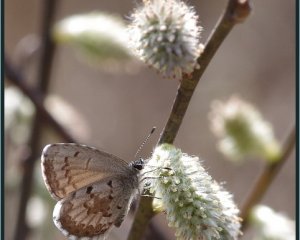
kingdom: Animalia
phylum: Arthropoda
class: Insecta
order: Lepidoptera
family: Lycaenidae
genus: Celastrina
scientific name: Celastrina lucia
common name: Northern Spring Azure
